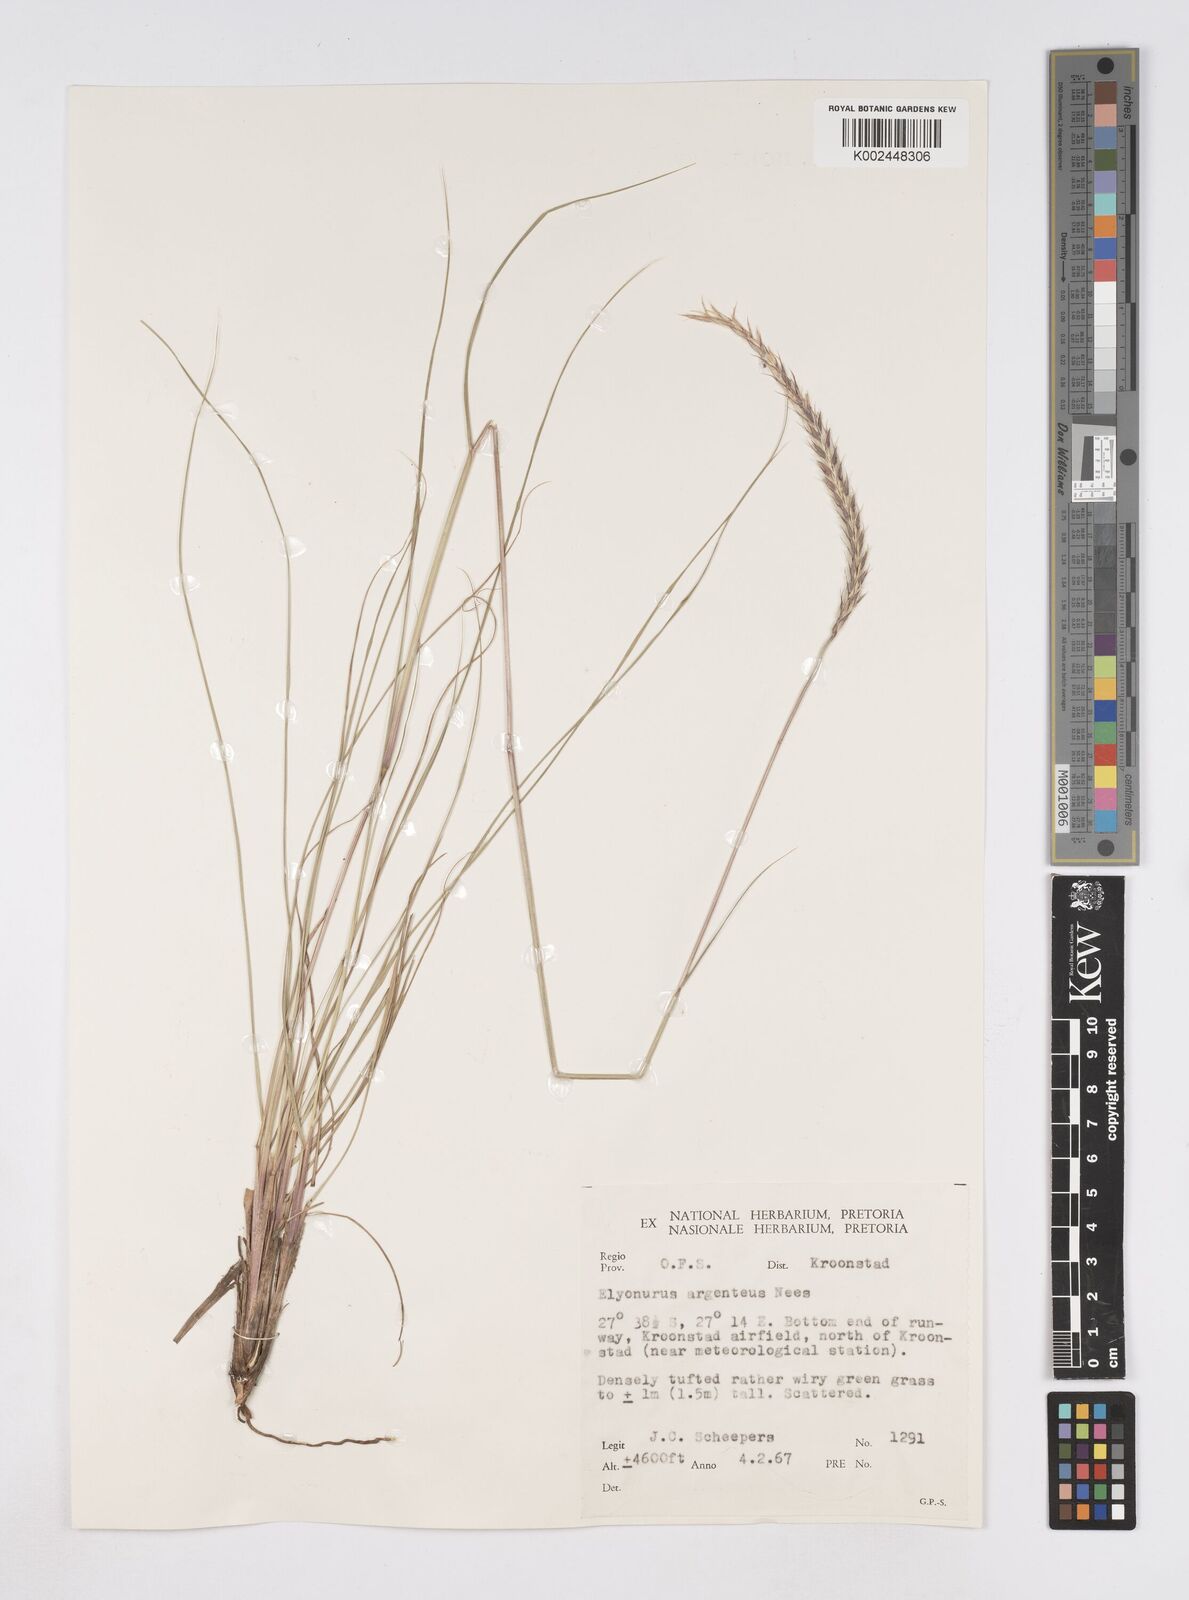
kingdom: Plantae
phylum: Tracheophyta
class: Liliopsida
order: Poales
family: Poaceae
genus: Elionurus
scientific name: Elionurus muticus
